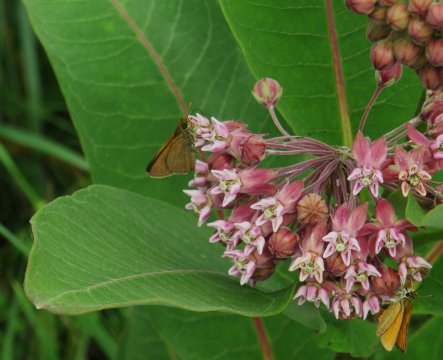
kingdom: Animalia
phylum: Arthropoda
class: Insecta
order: Lepidoptera
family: Hesperiidae
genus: Polites
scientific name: Polites themistocles
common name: Tawny-edged Skipper
